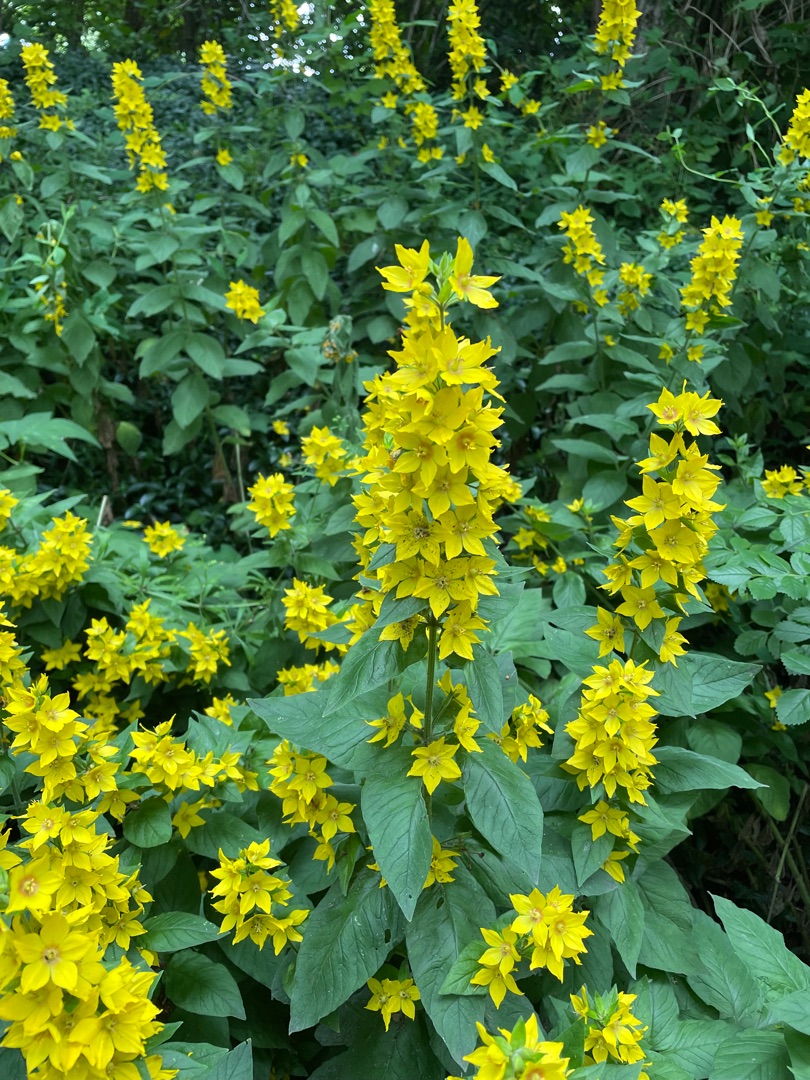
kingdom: Plantae
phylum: Tracheophyta
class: Magnoliopsida
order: Ericales
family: Primulaceae
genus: Lysimachia
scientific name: Lysimachia punctata
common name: Prikbladet fredløs
